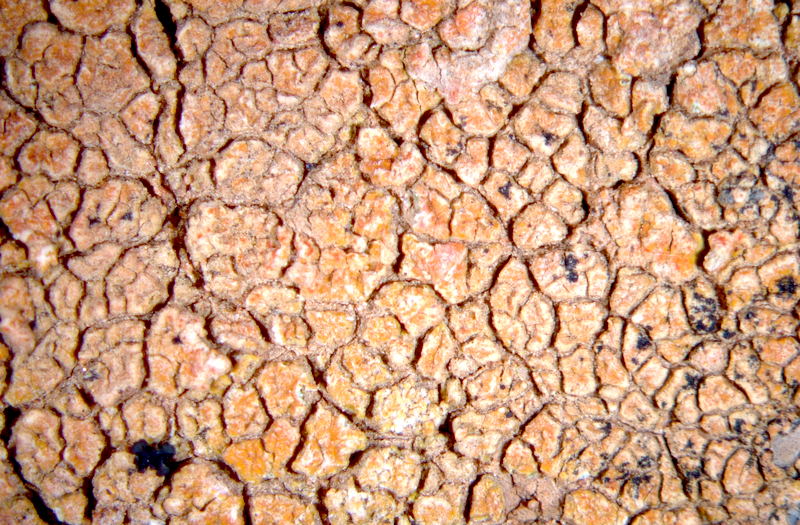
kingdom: Fungi
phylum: Ascomycota
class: Lecanoromycetes
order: Teloschistales
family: Teloschistaceae
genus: Caloplaca
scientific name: Caloplaca
